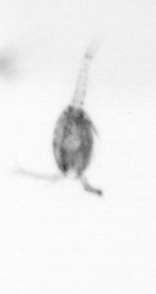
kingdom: Animalia
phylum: Arthropoda
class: Copepoda
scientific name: Copepoda
